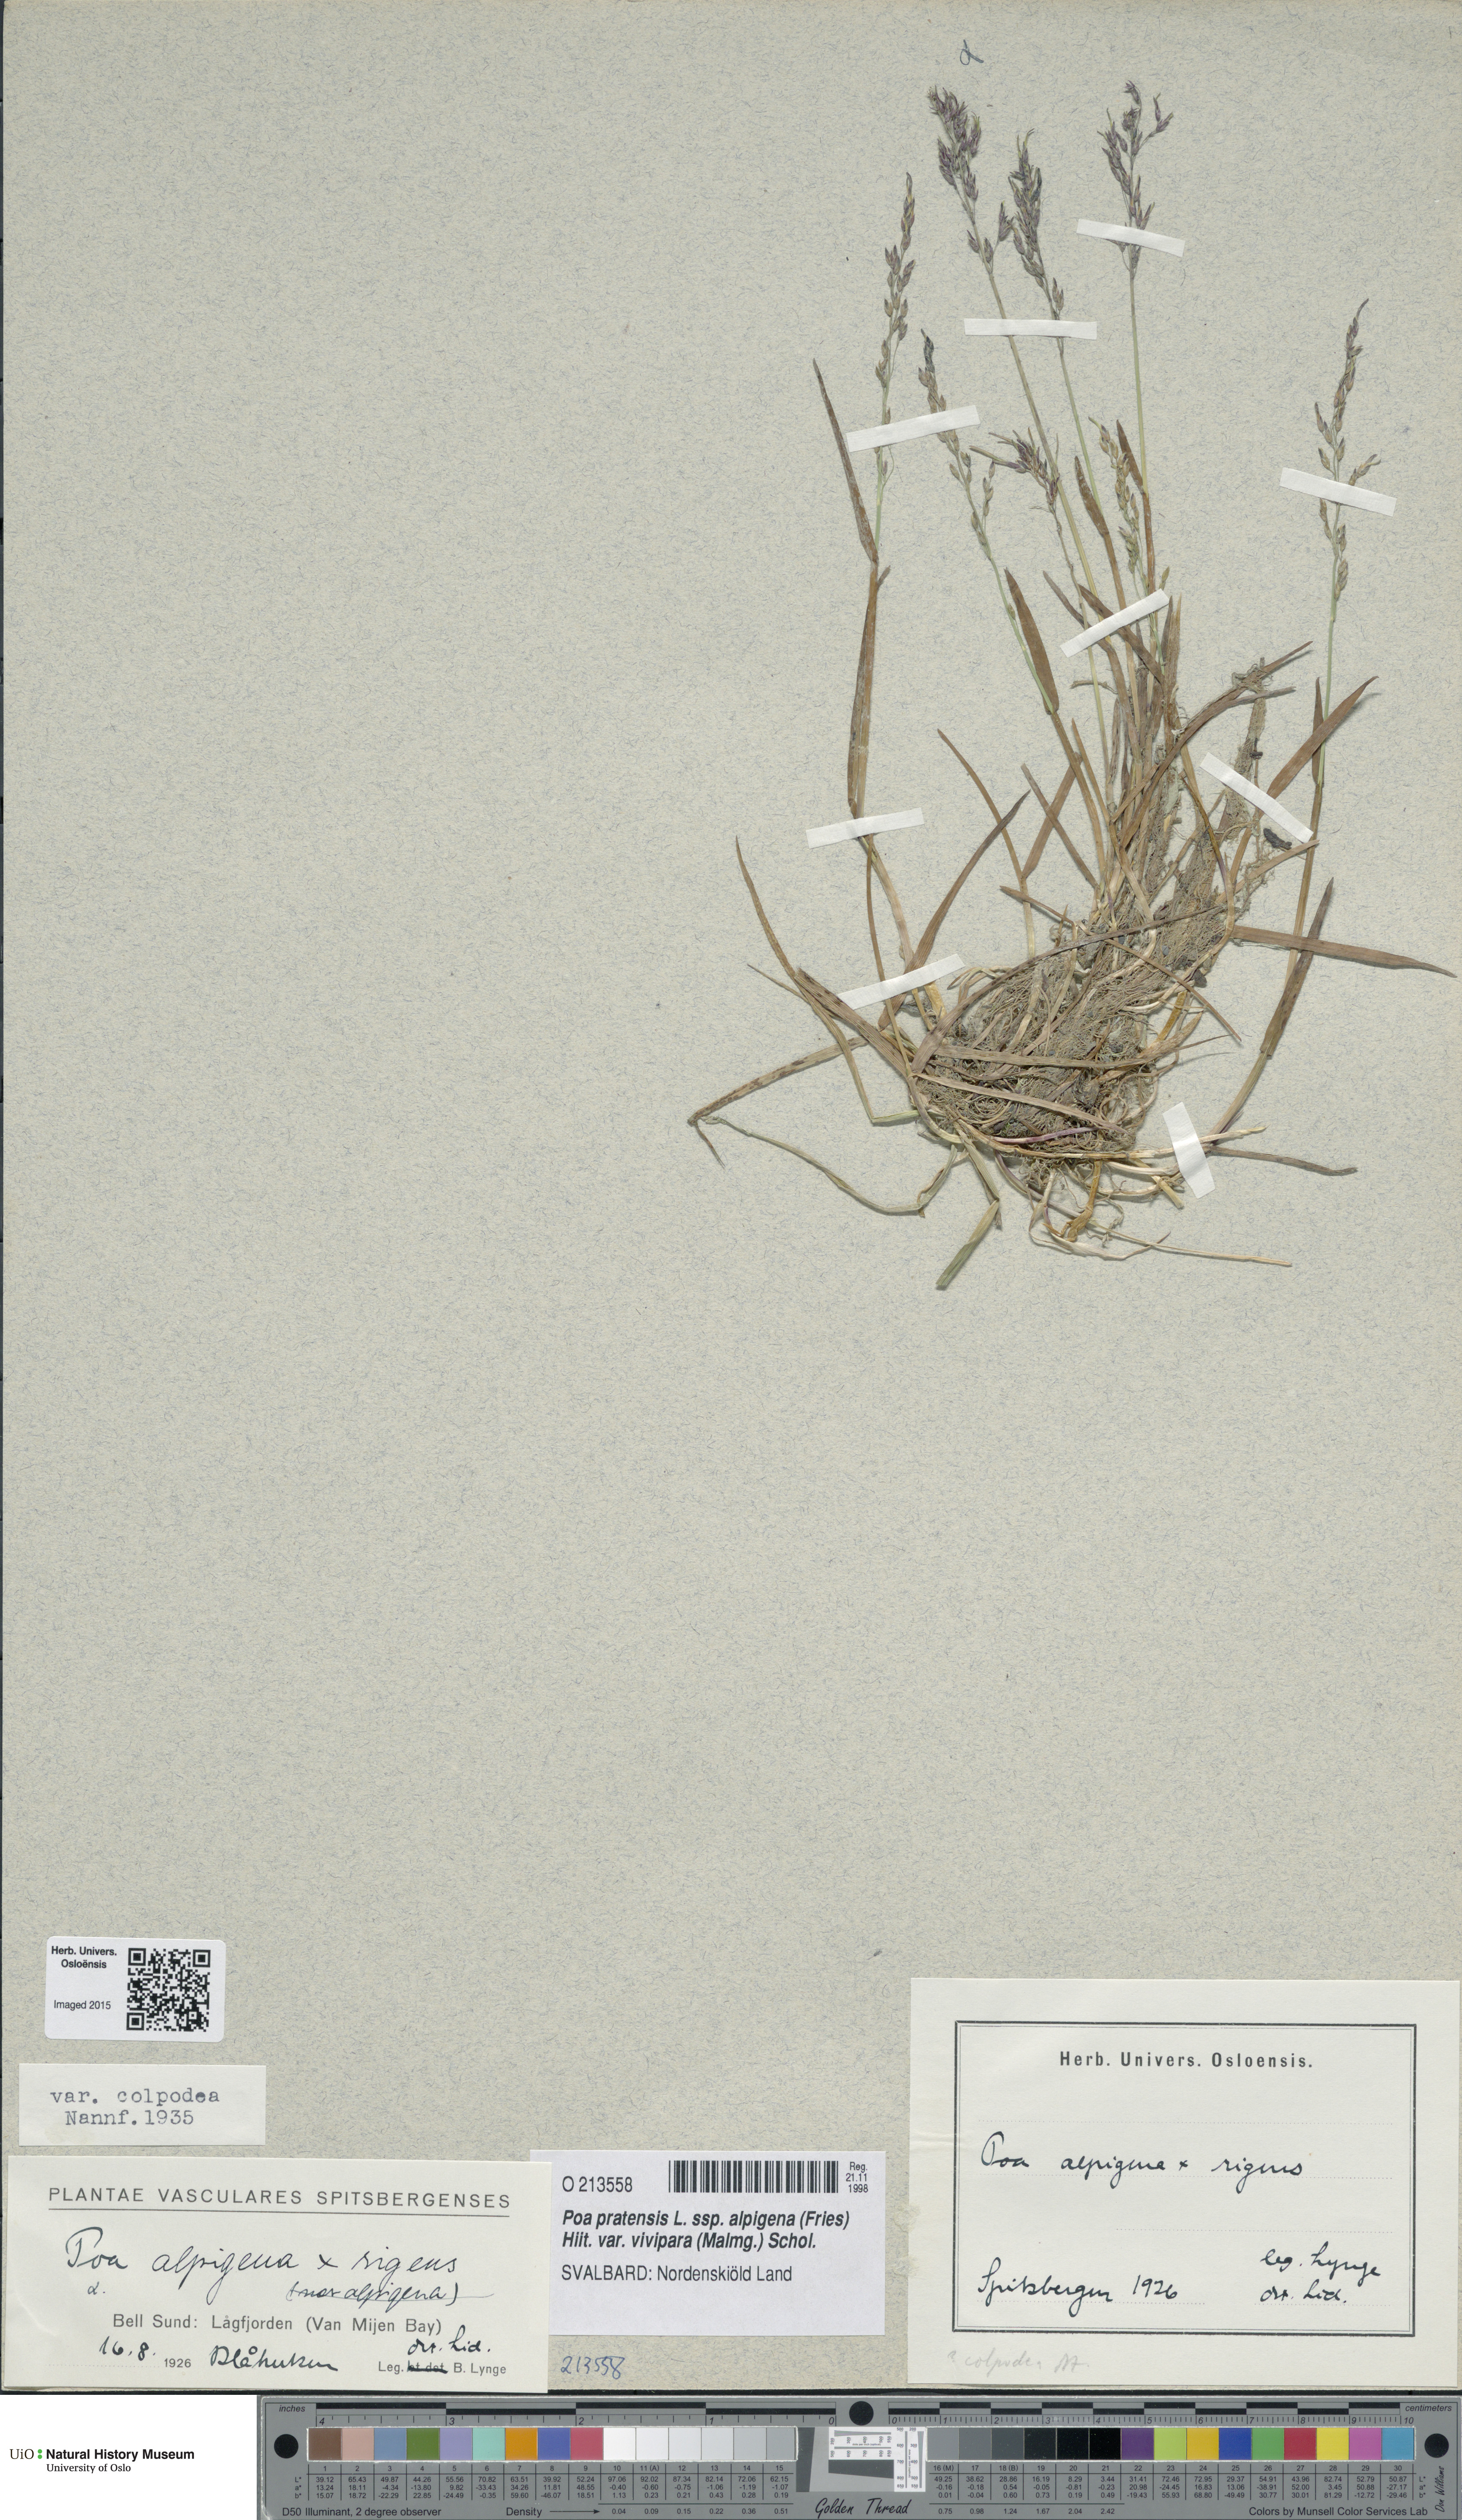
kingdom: Plantae
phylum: Tracheophyta
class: Liliopsida
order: Poales
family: Poaceae
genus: Poa
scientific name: Poa colpodea
